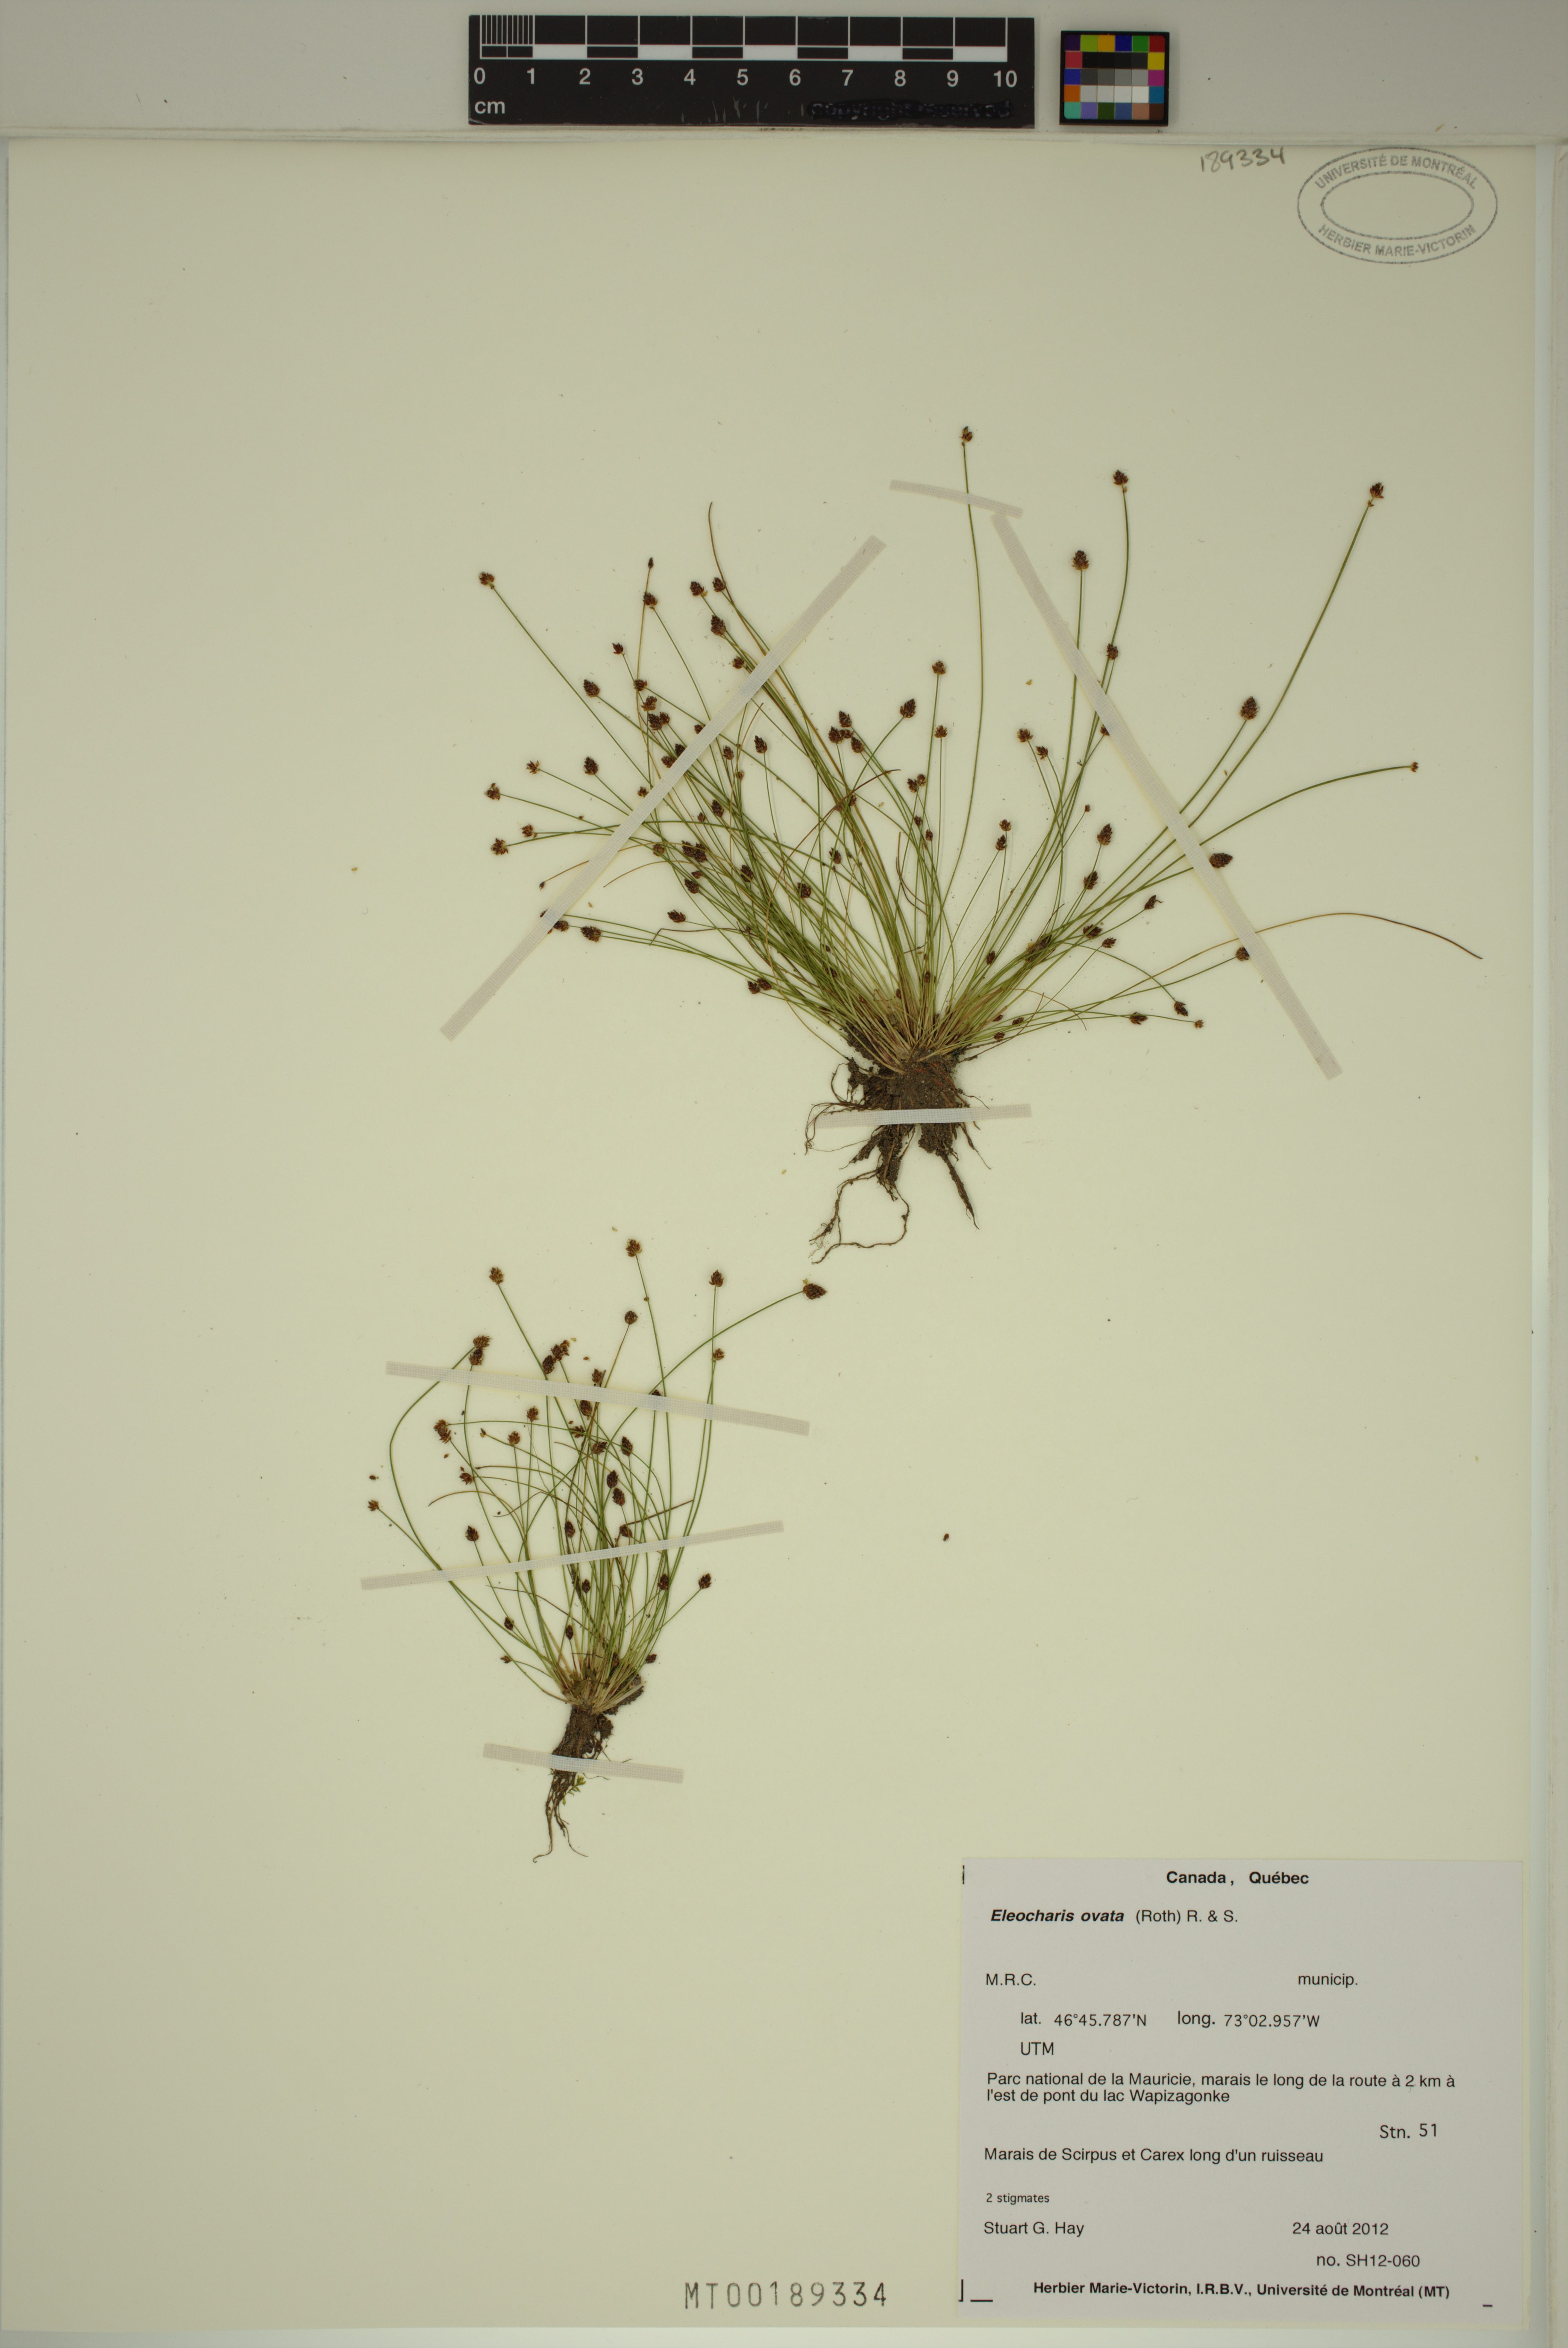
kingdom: Plantae
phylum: Tracheophyta
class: Liliopsida
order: Poales
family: Cyperaceae
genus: Eleocharis
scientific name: Eleocharis ovata
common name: Oval spike-rush
